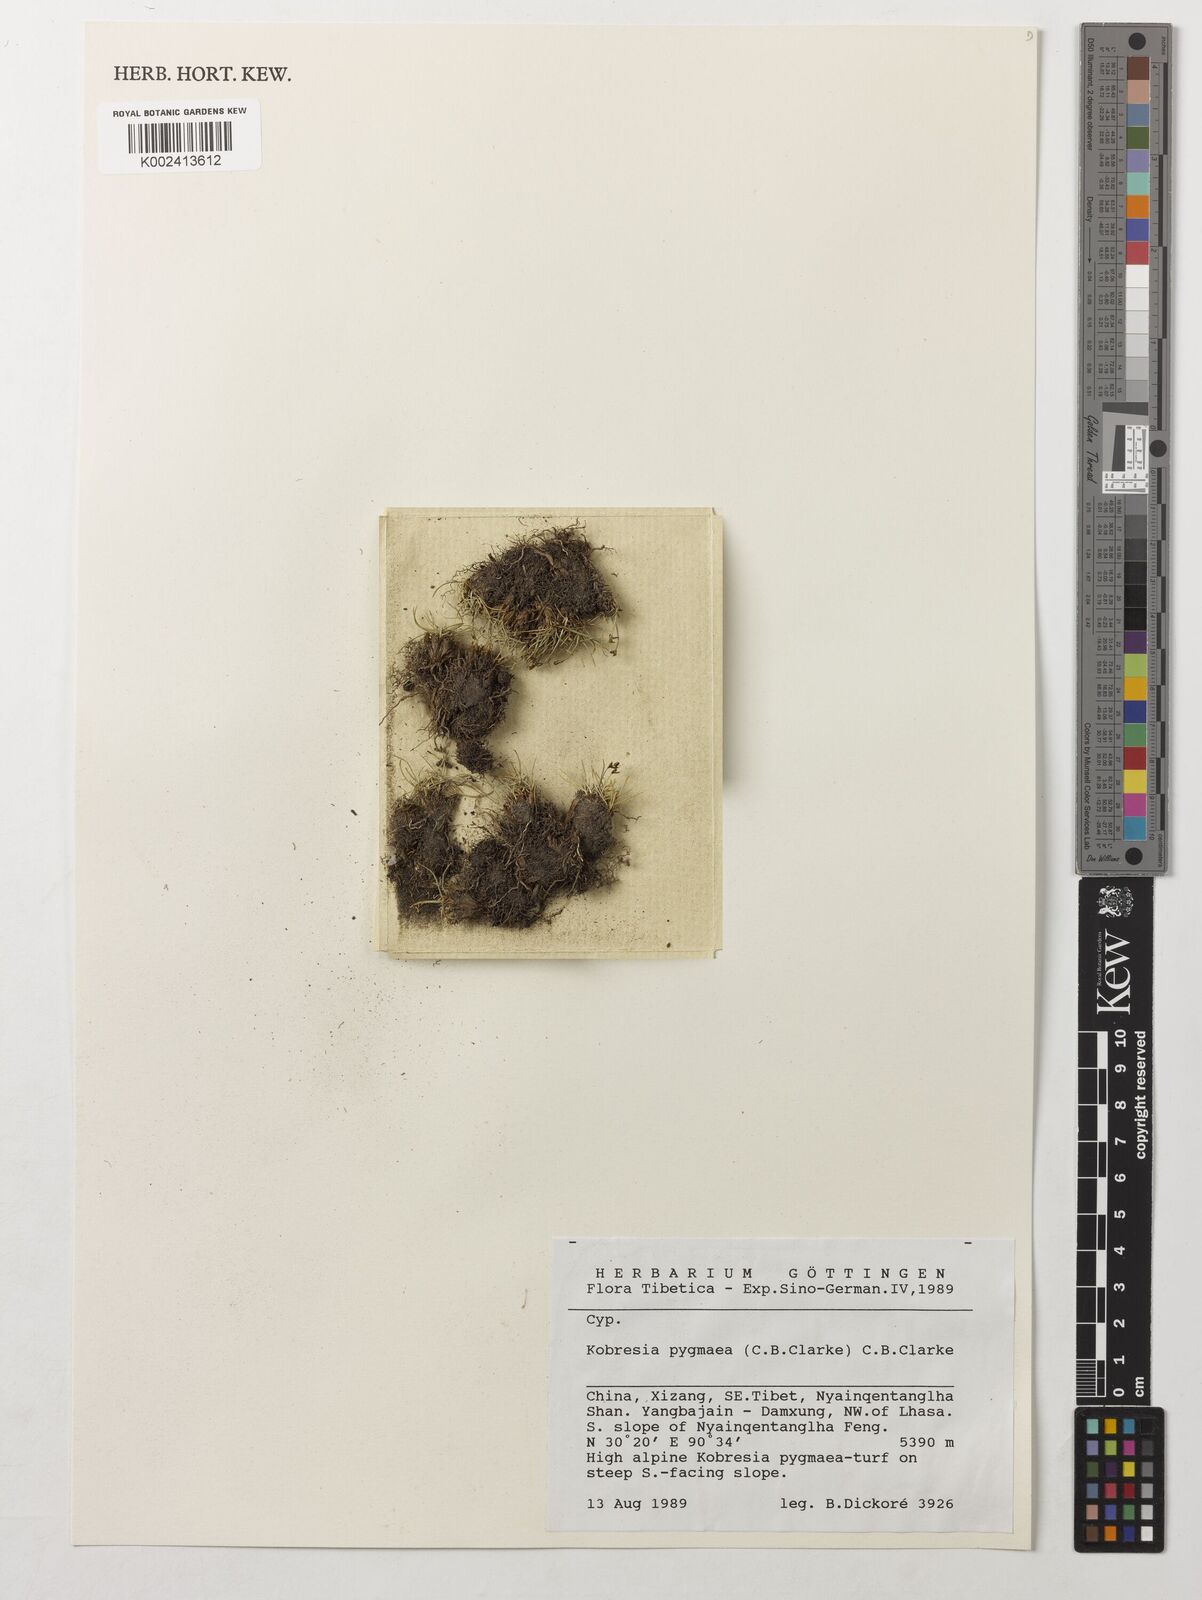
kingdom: Plantae
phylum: Tracheophyta
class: Liliopsida
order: Poales
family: Cyperaceae
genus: Carex
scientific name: Carex parvula
